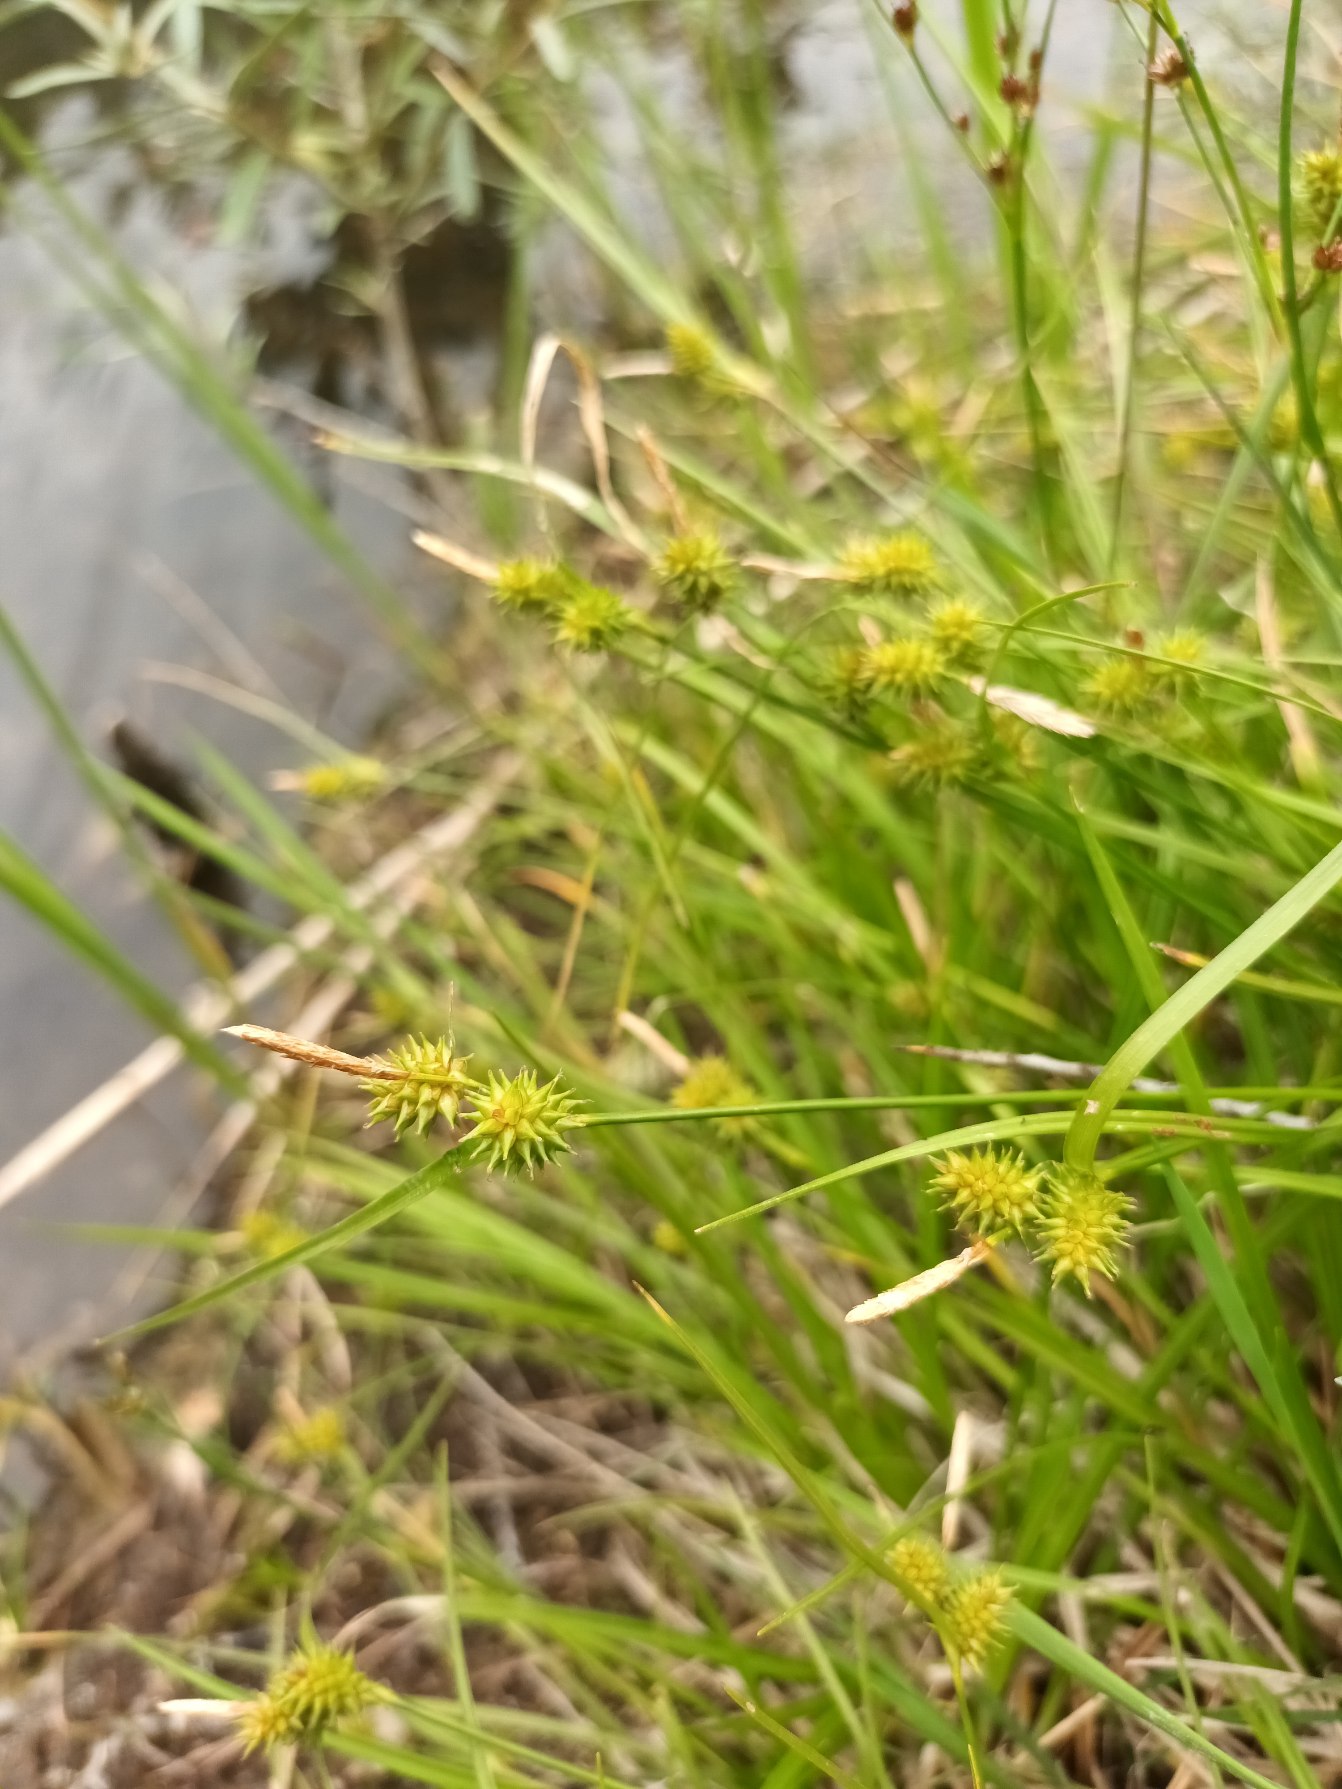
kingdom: Plantae
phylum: Tracheophyta
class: Liliopsida
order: Poales
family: Cyperaceae
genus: Carex
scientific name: Carex oederi
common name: Dværg-star
